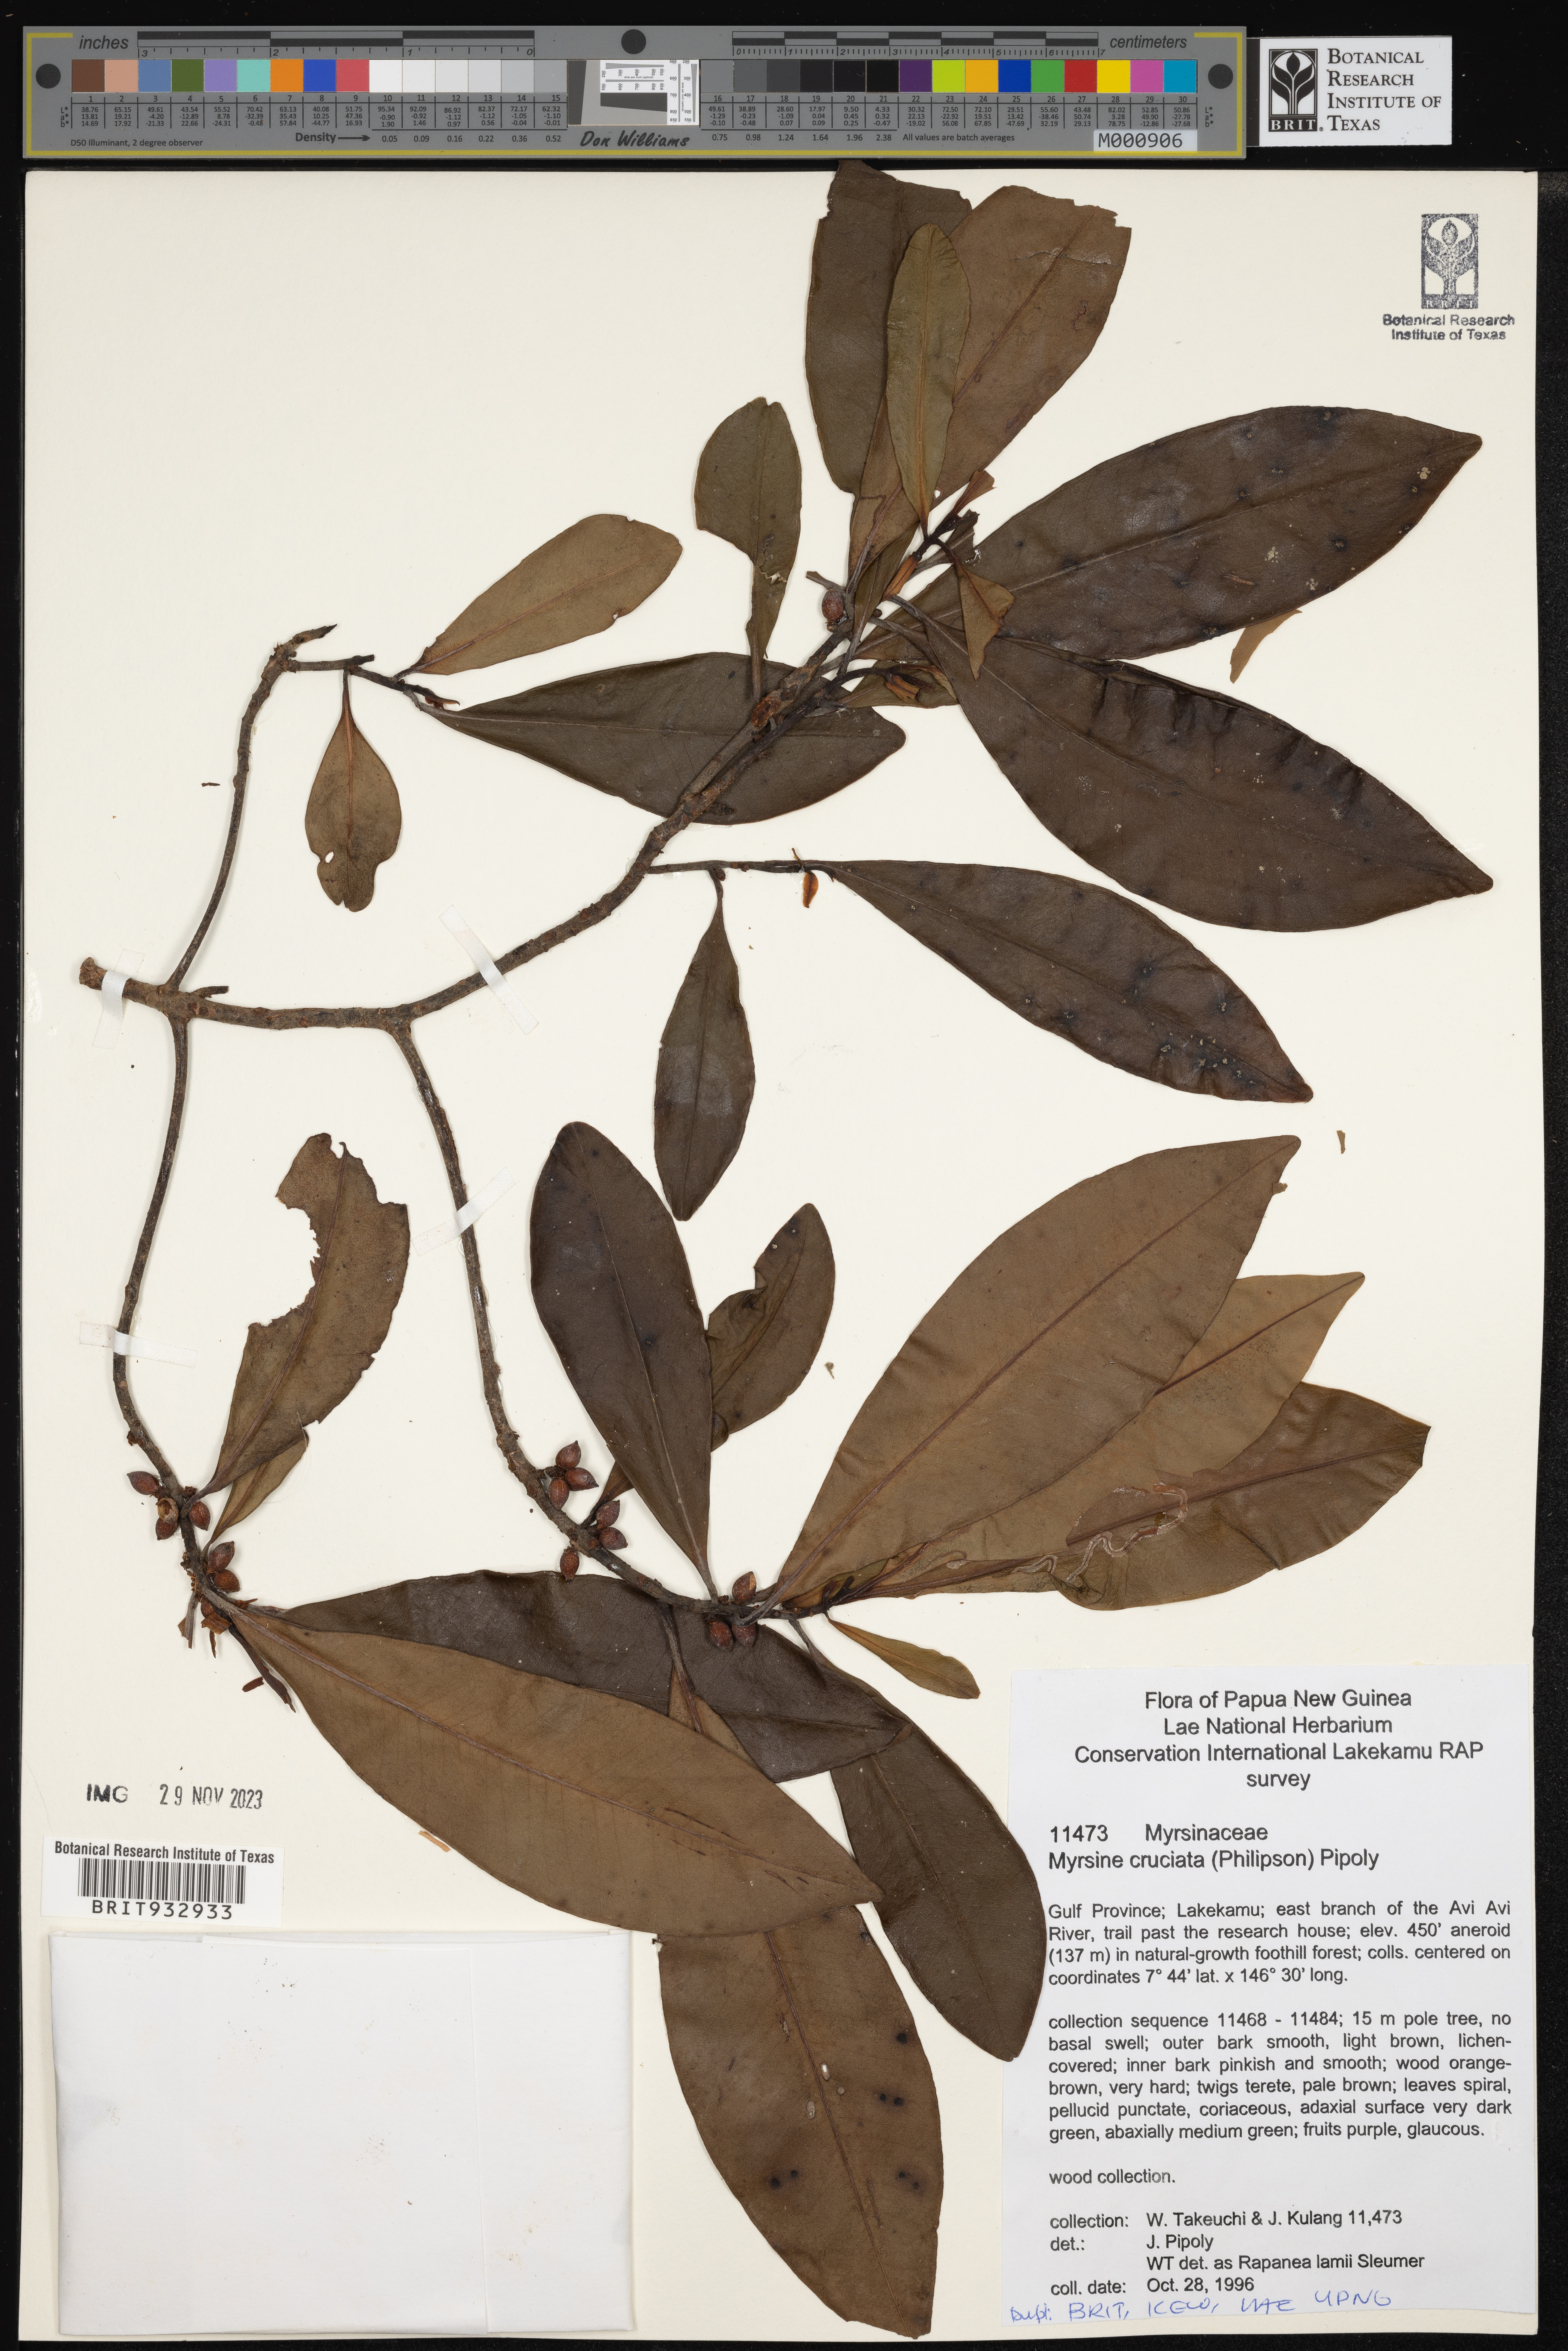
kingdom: Plantae
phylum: Tracheophyta
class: Magnoliopsida
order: Ericales
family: Primulaceae
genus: Myrsine
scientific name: Myrsine
